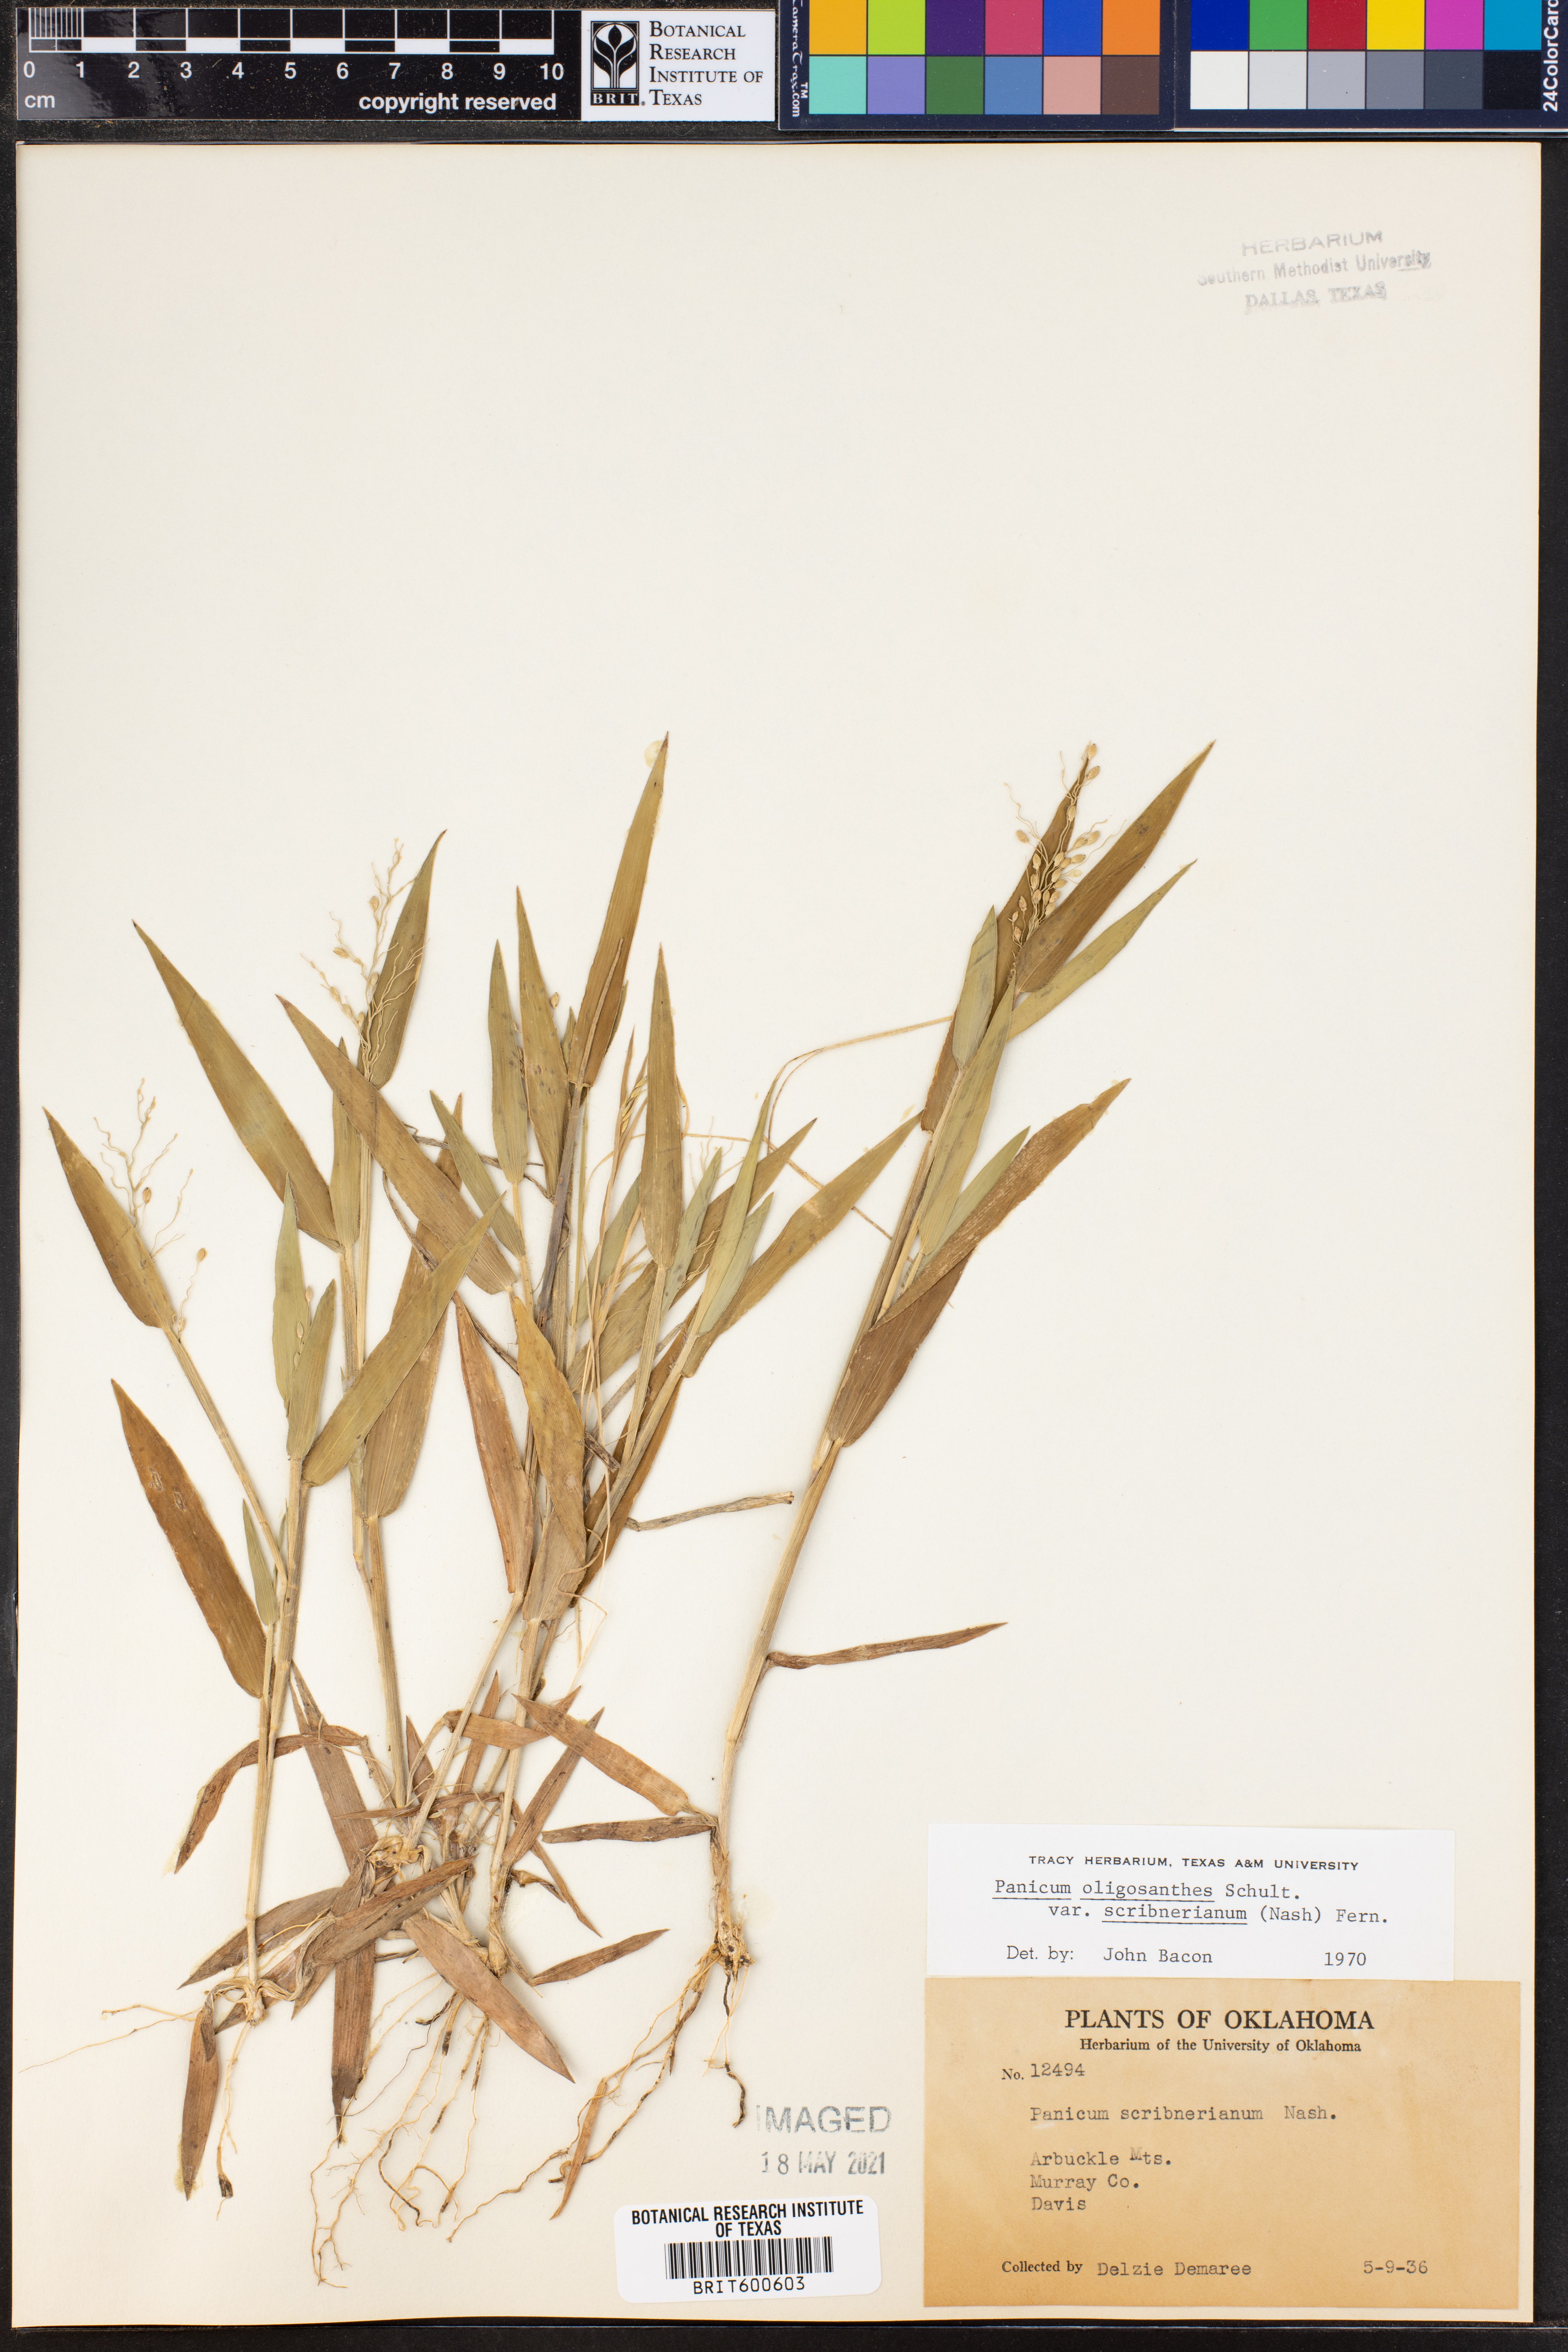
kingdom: Plantae
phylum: Tracheophyta
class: Liliopsida
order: Poales
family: Poaceae
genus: Dichanthelium
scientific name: Dichanthelium scribnerianum
